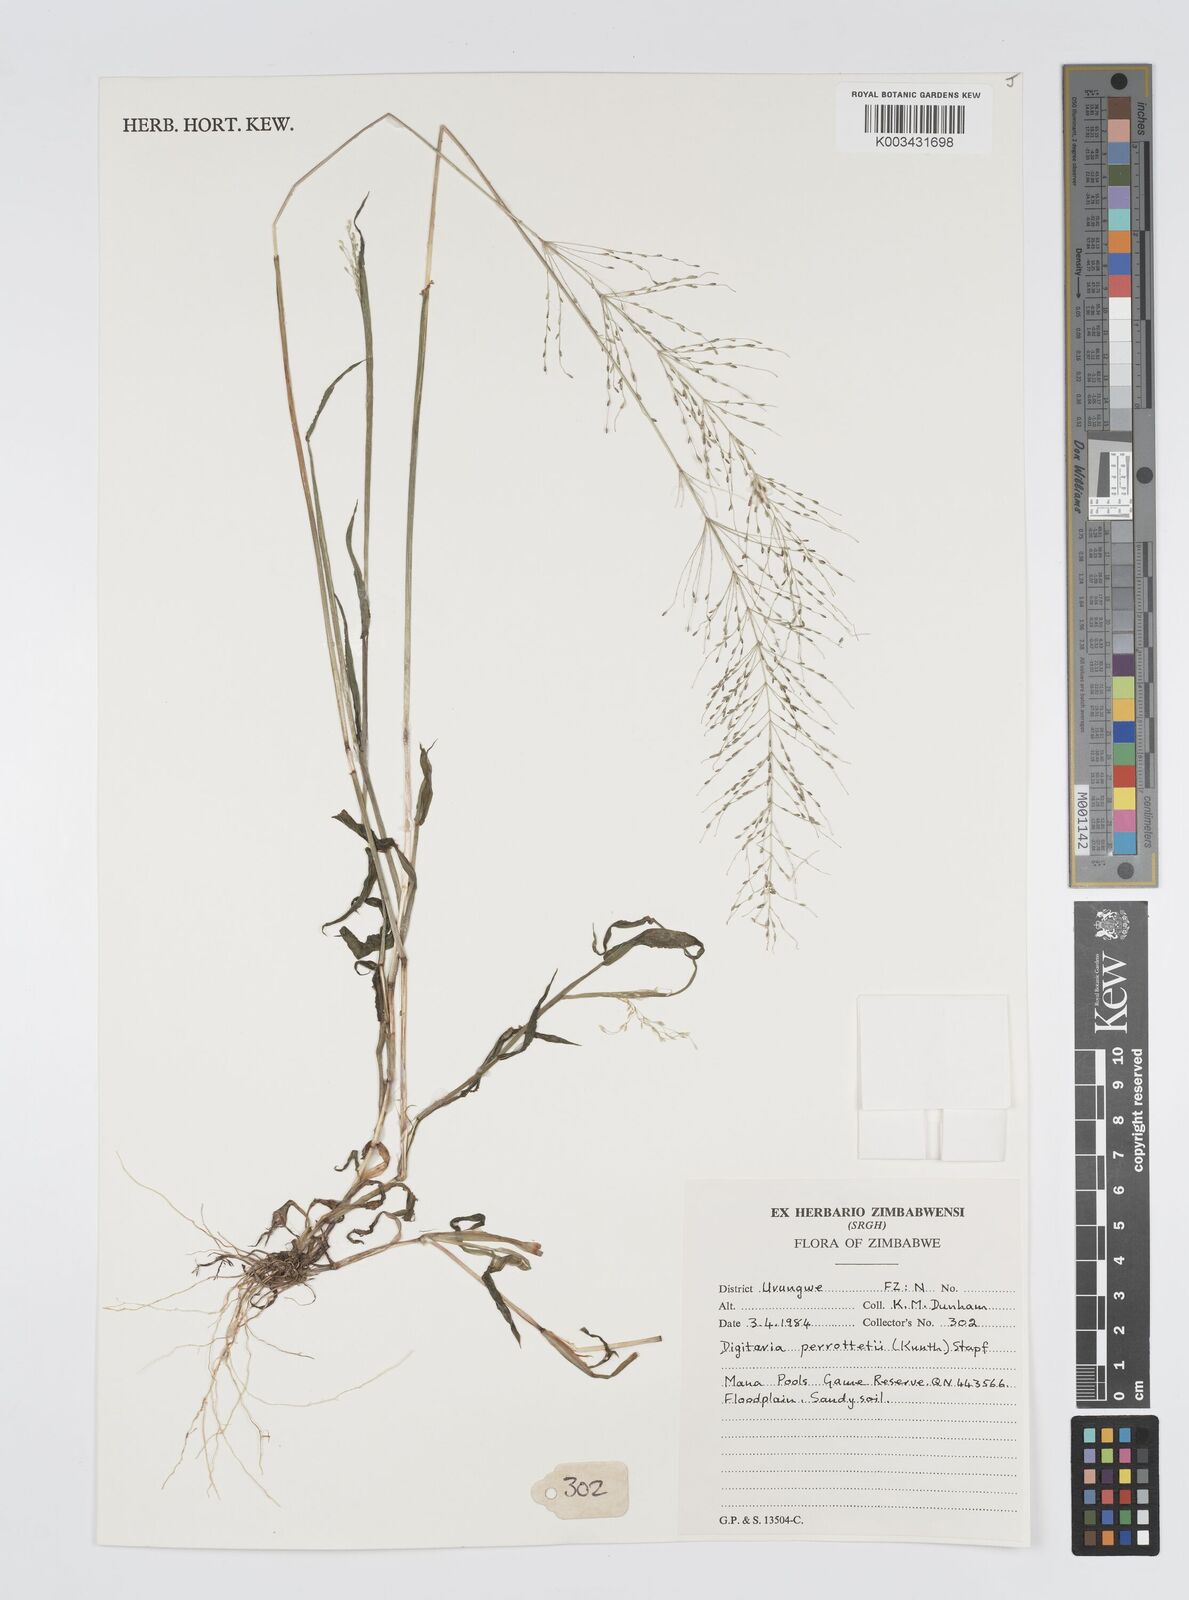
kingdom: Plantae
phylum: Tracheophyta
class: Liliopsida
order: Poales
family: Poaceae
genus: Digitaria
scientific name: Digitaria perrottetii
